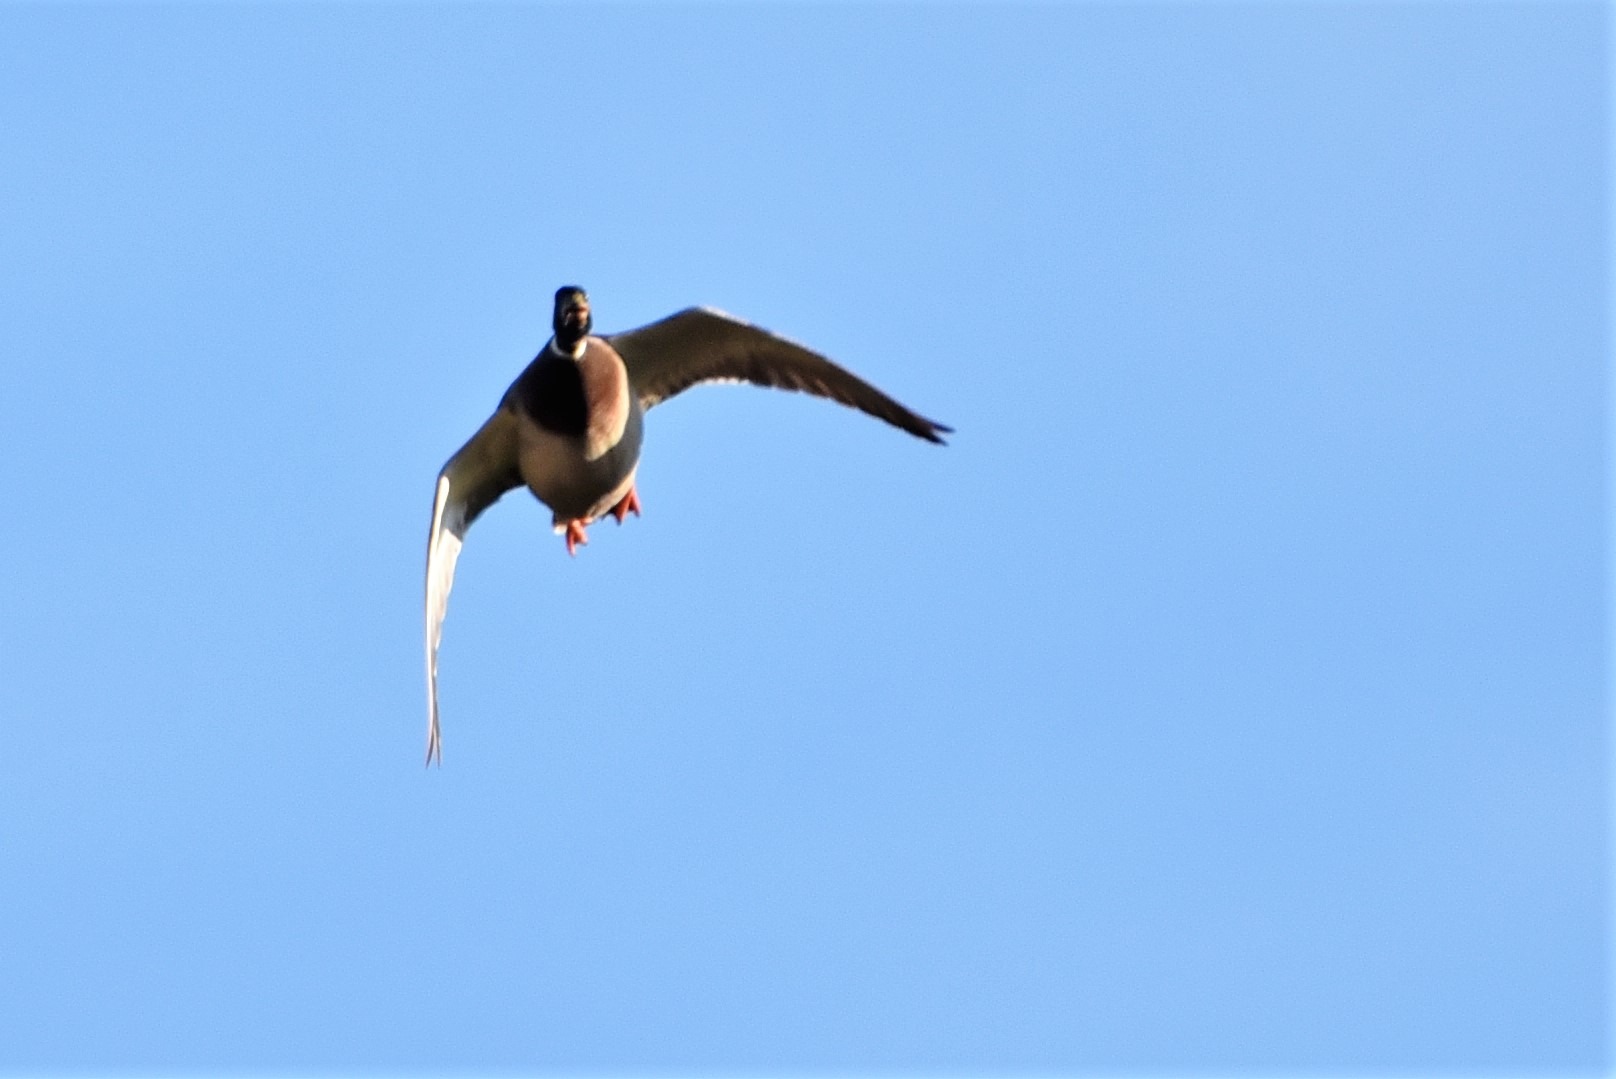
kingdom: Animalia
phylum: Chordata
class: Aves
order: Anseriformes
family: Anatidae
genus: Anas
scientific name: Anas platyrhynchos
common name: Gråand
